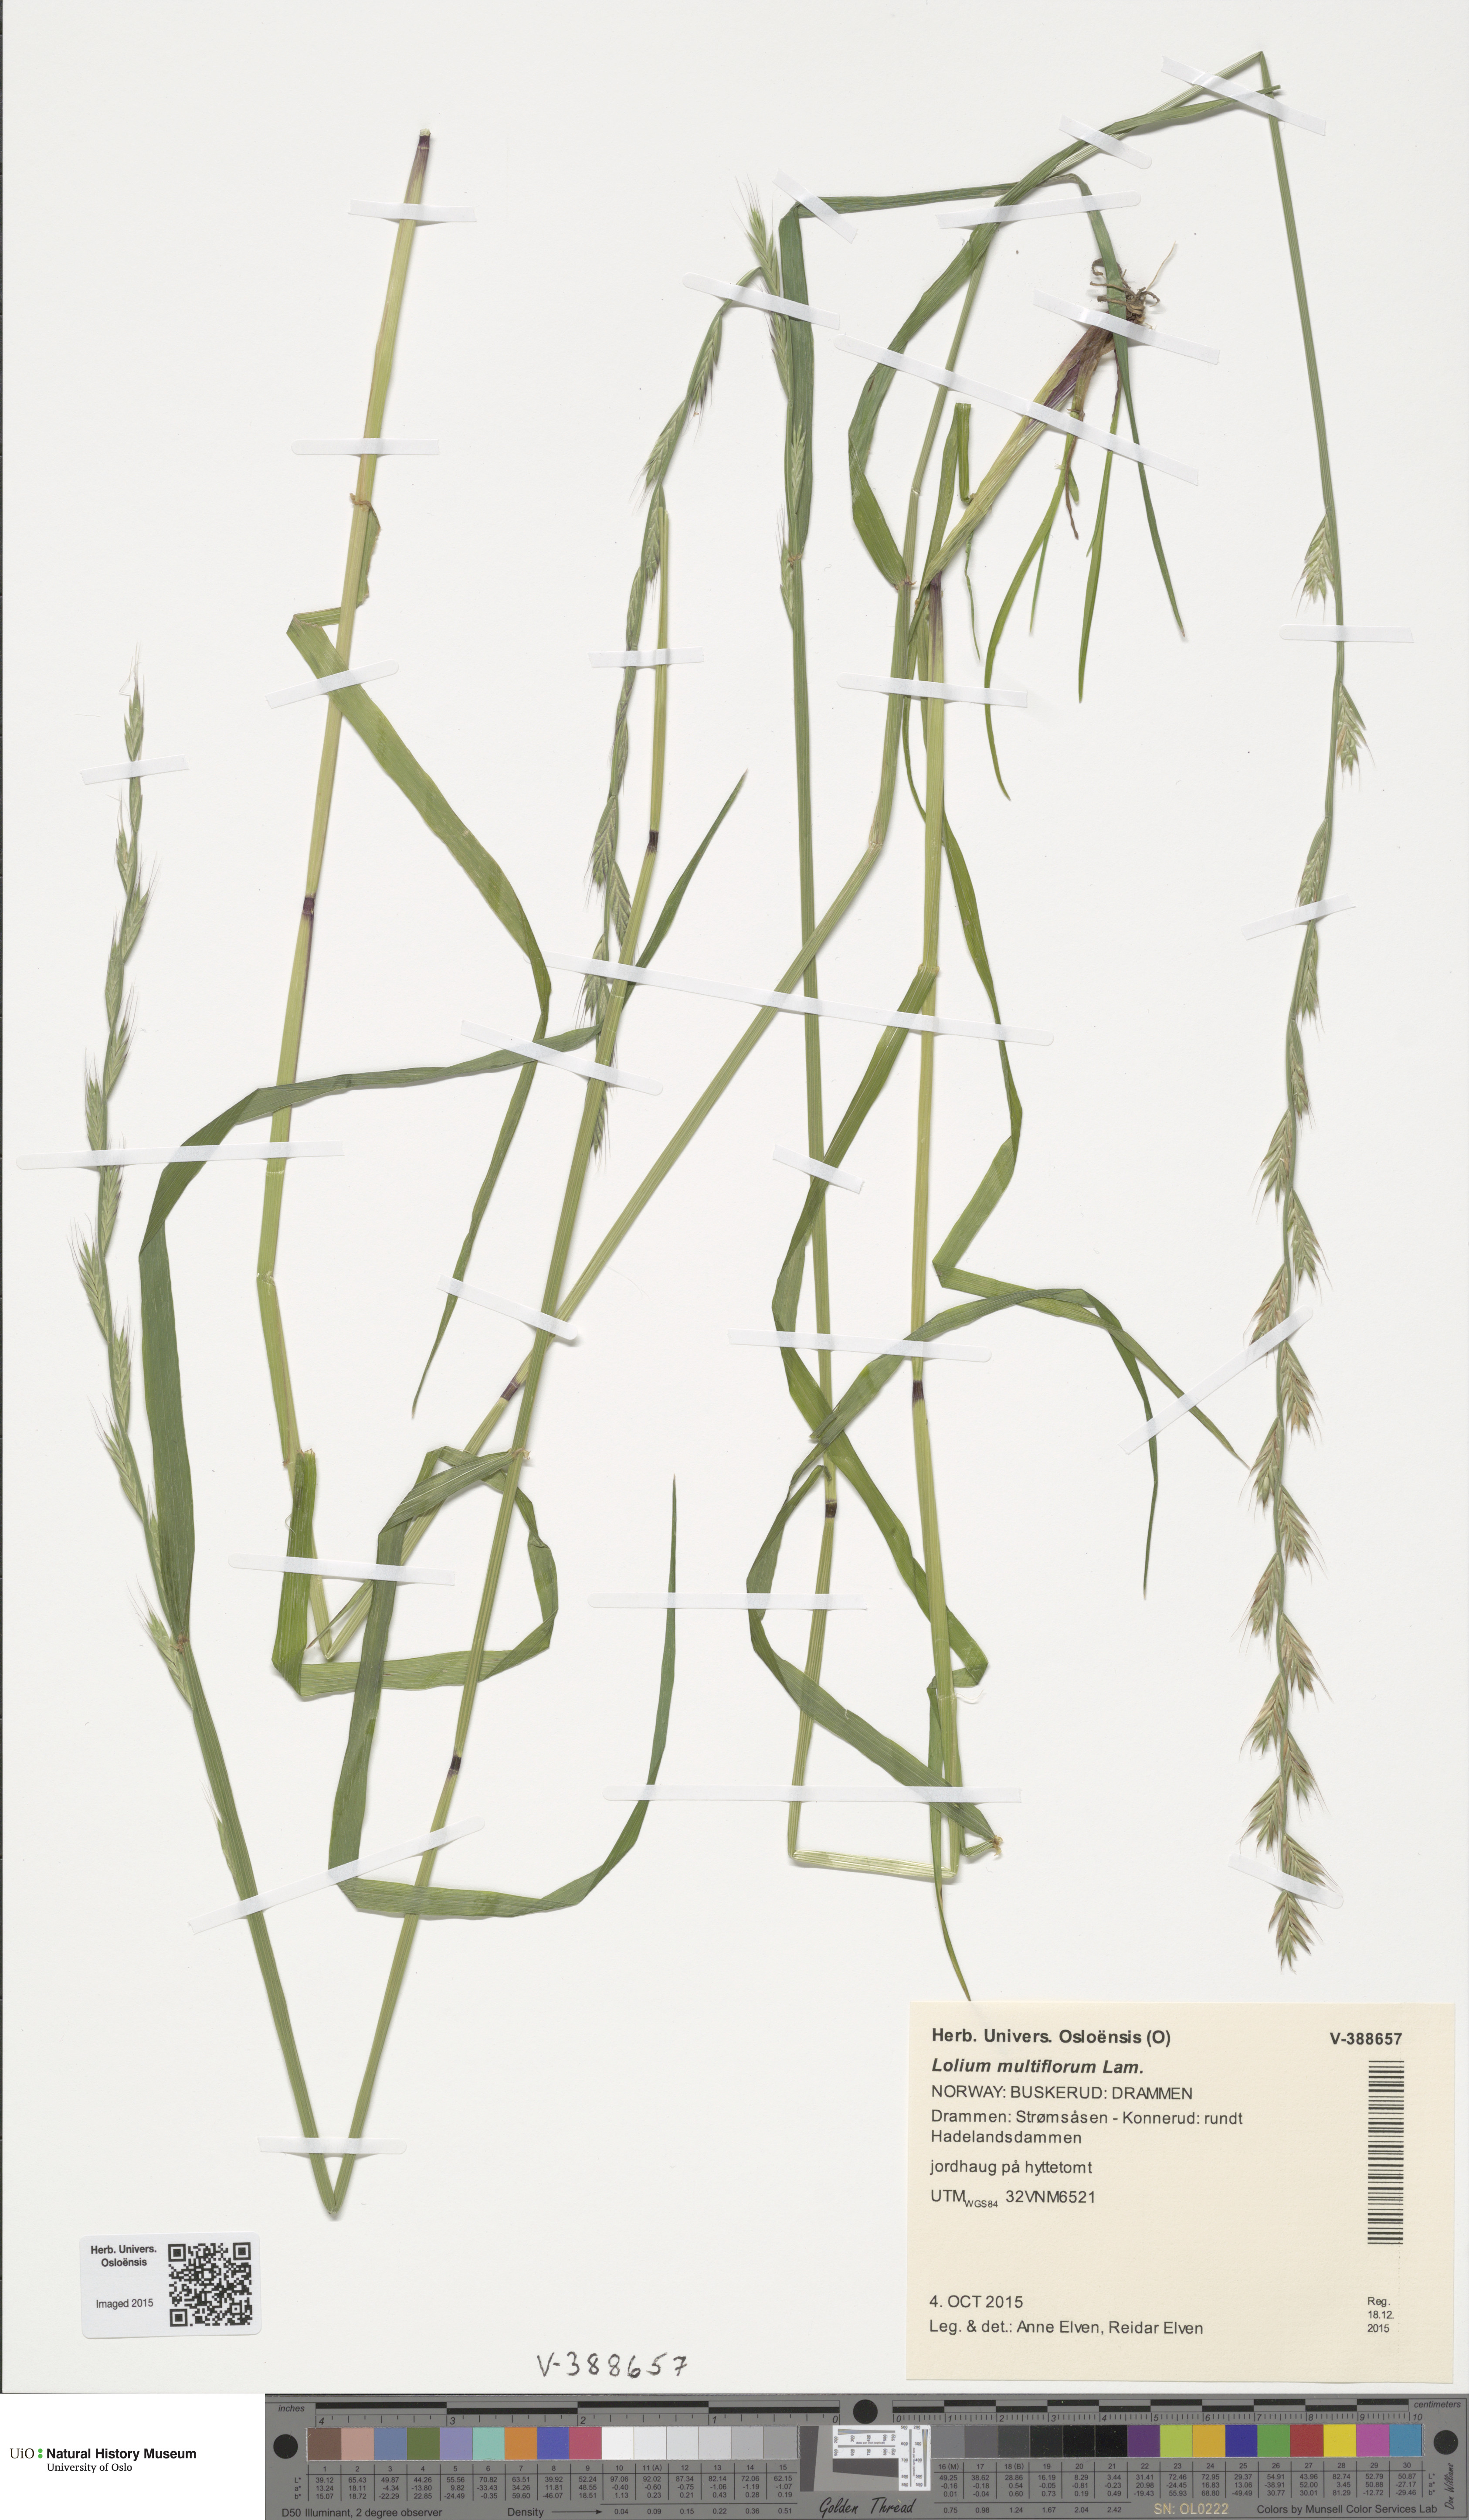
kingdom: Plantae
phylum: Tracheophyta
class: Liliopsida
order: Poales
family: Poaceae
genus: Lolium
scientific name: Lolium multiflorum
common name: Annual ryegrass
